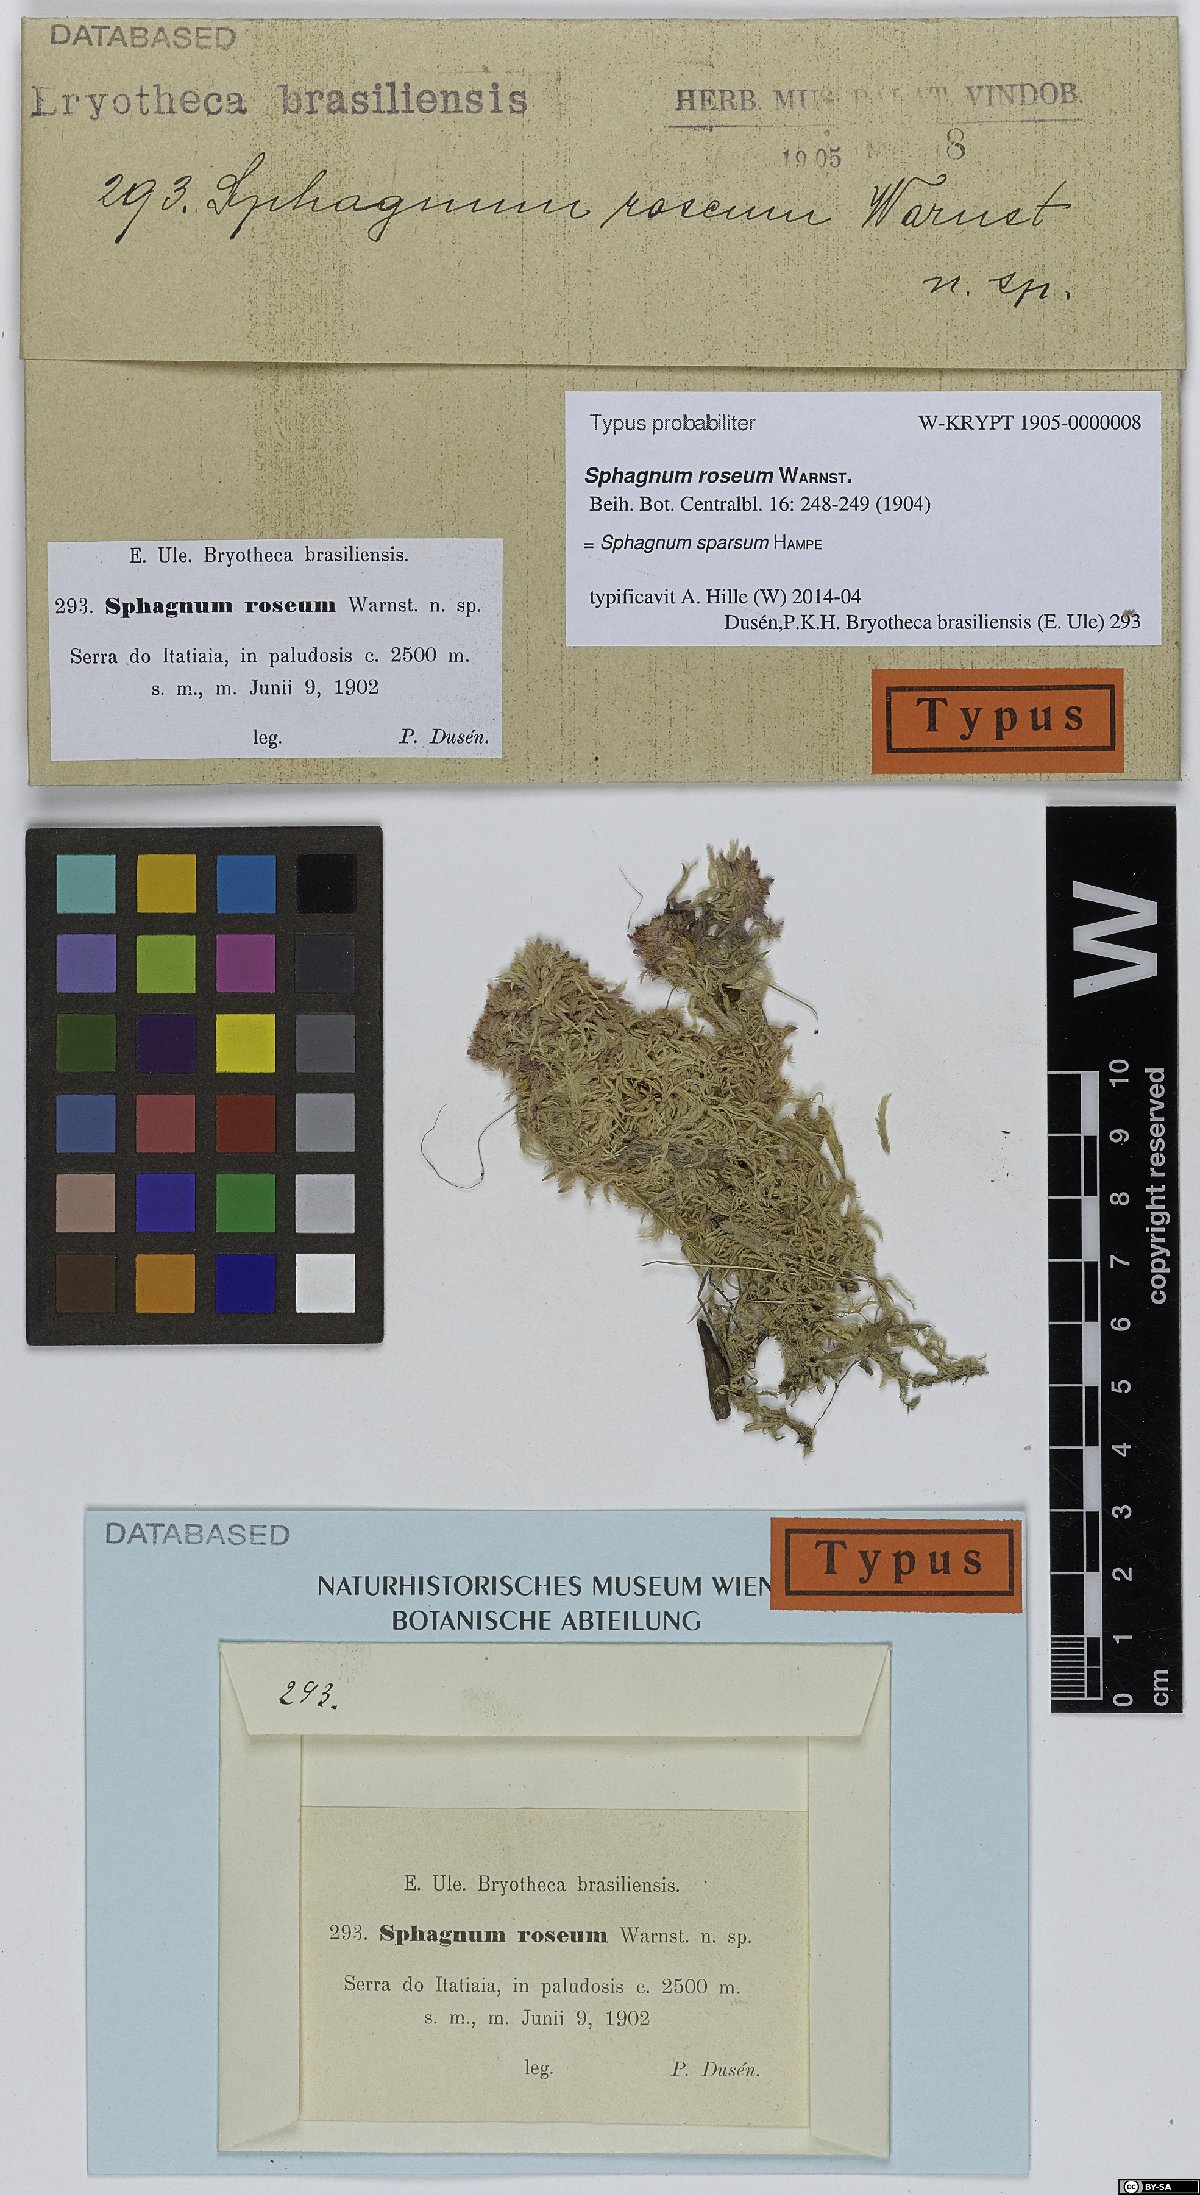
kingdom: Plantae
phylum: Bryophyta
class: Sphagnopsida
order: Sphagnales
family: Sphagnaceae
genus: Sphagnum
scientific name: Sphagnum sparsum
